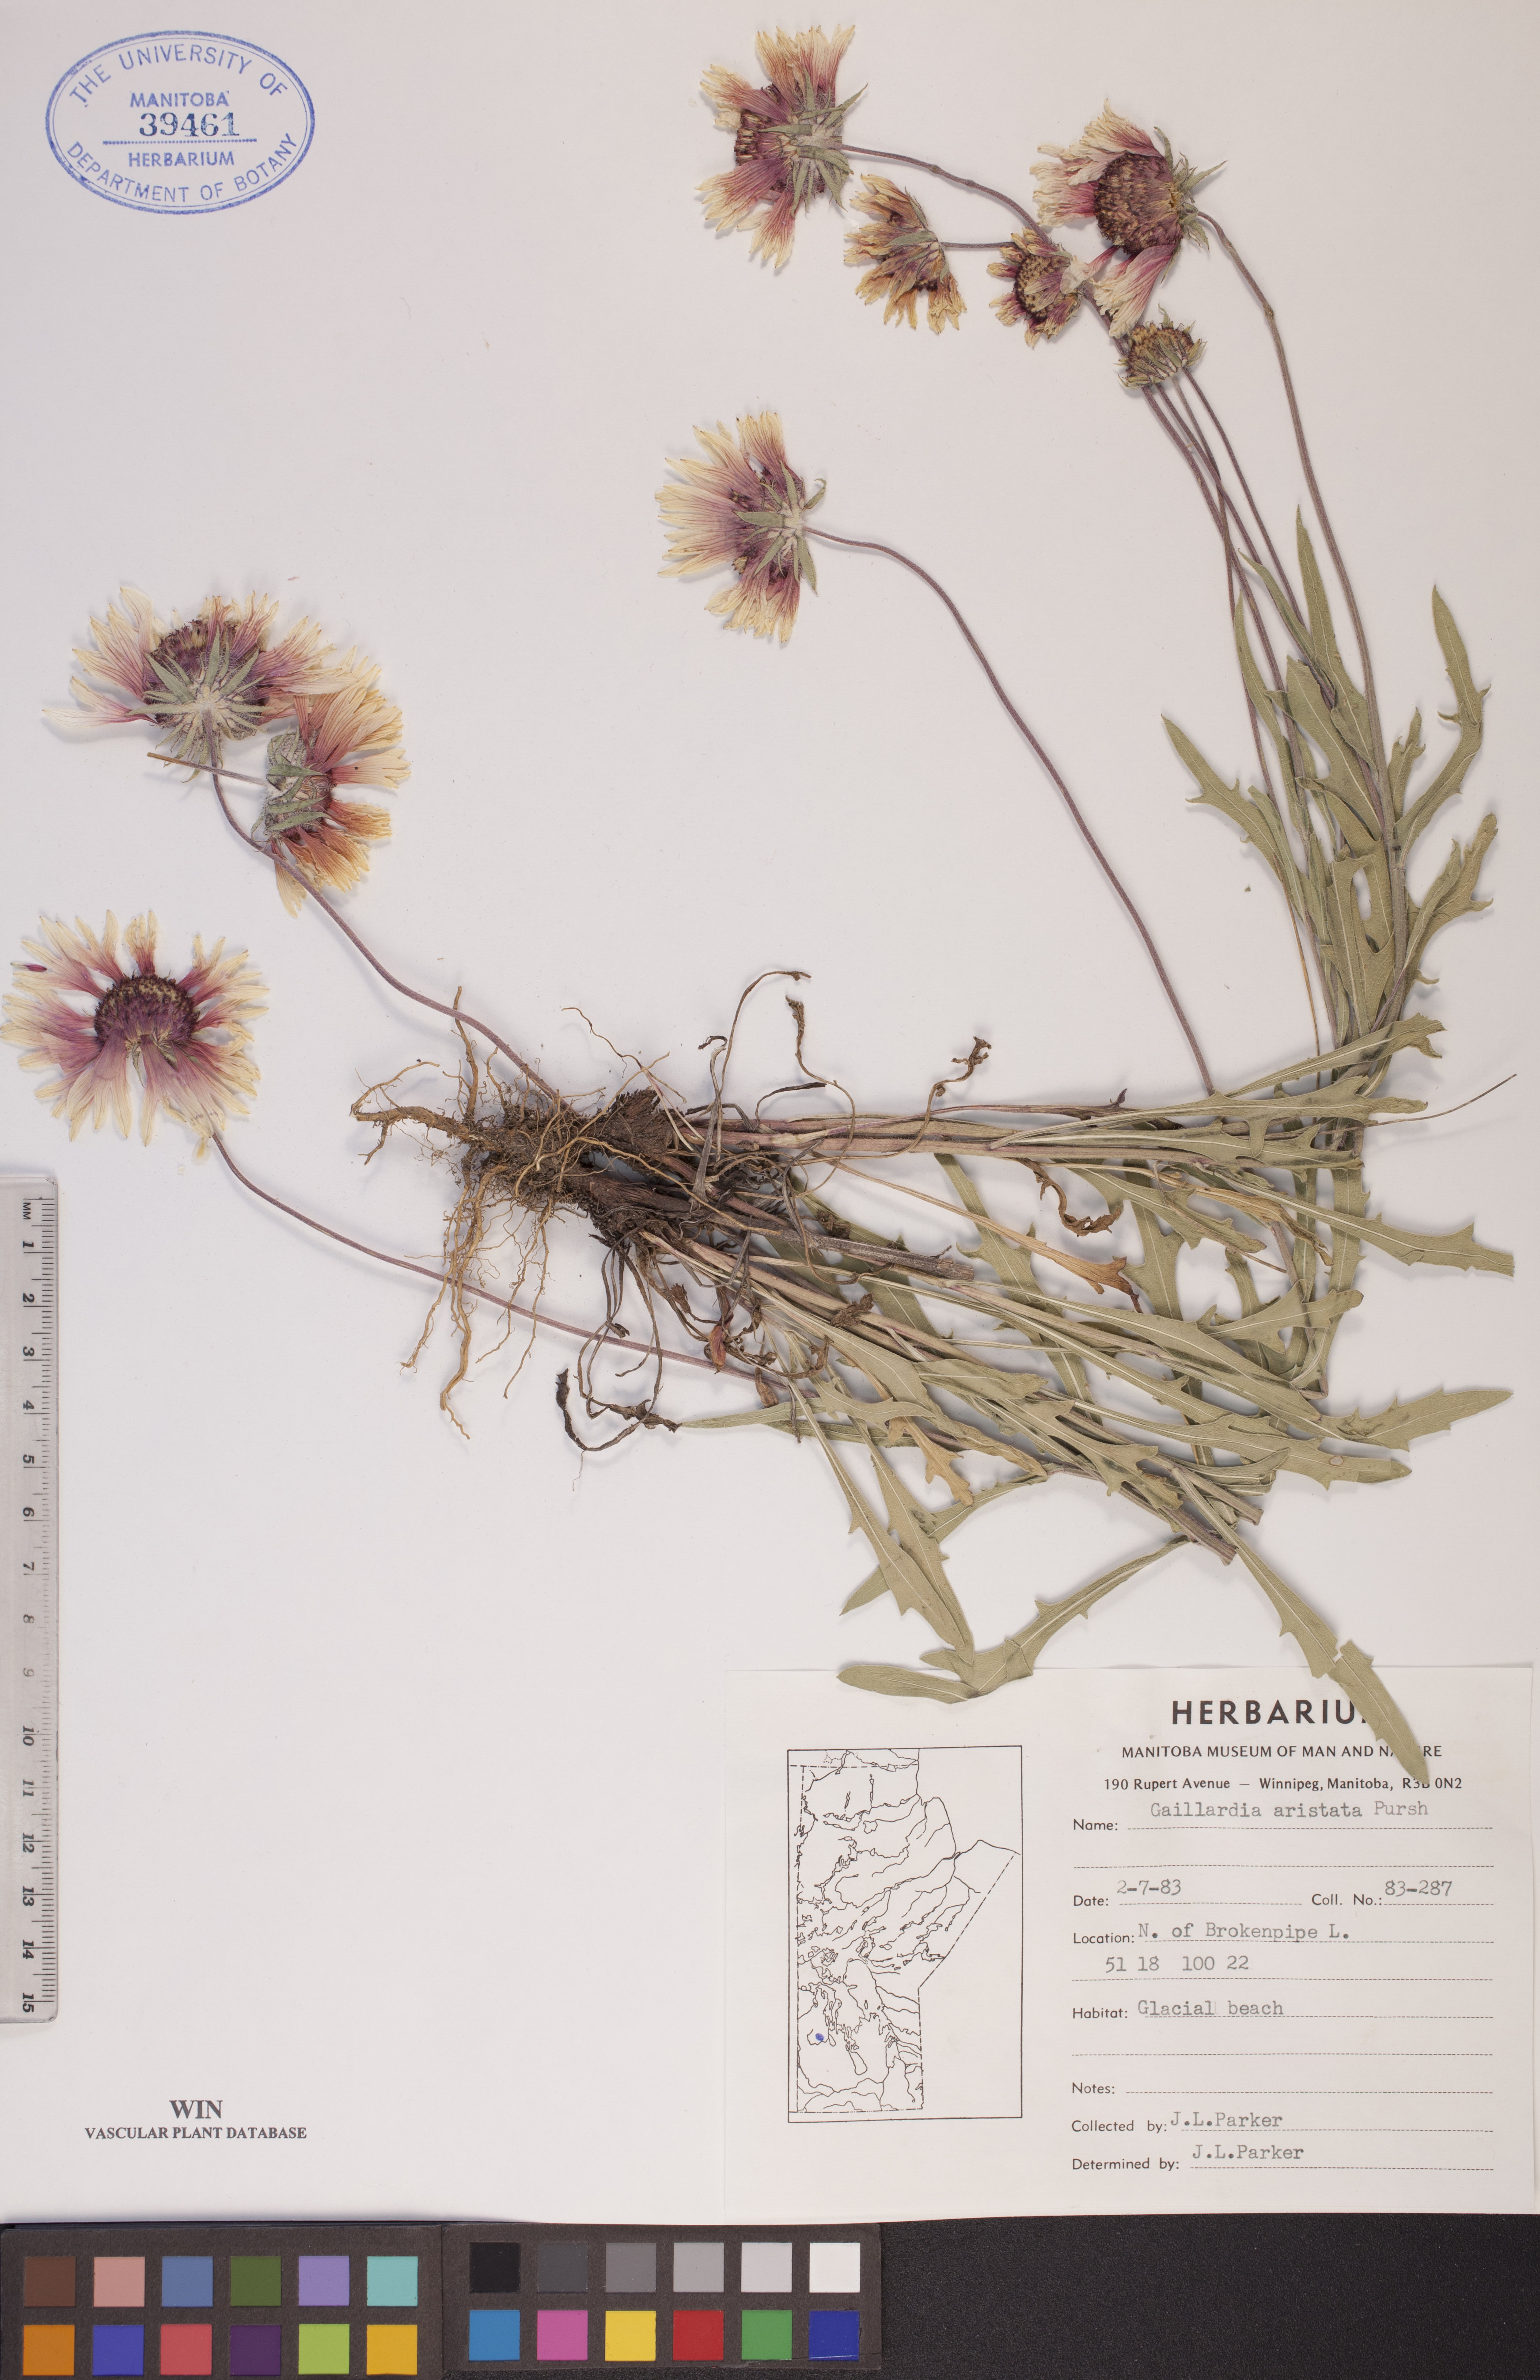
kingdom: Plantae
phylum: Tracheophyta
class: Magnoliopsida
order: Asterales
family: Asteraceae
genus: Gaillardia
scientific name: Gaillardia aristata
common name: Blanket-flower
